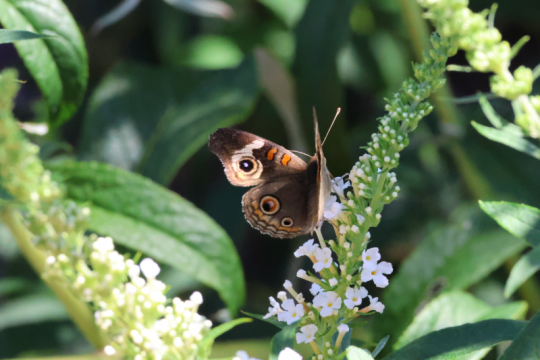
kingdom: Animalia
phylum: Arthropoda
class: Insecta
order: Lepidoptera
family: Nymphalidae
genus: Junonia
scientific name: Junonia coenia
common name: Common Buckeye
